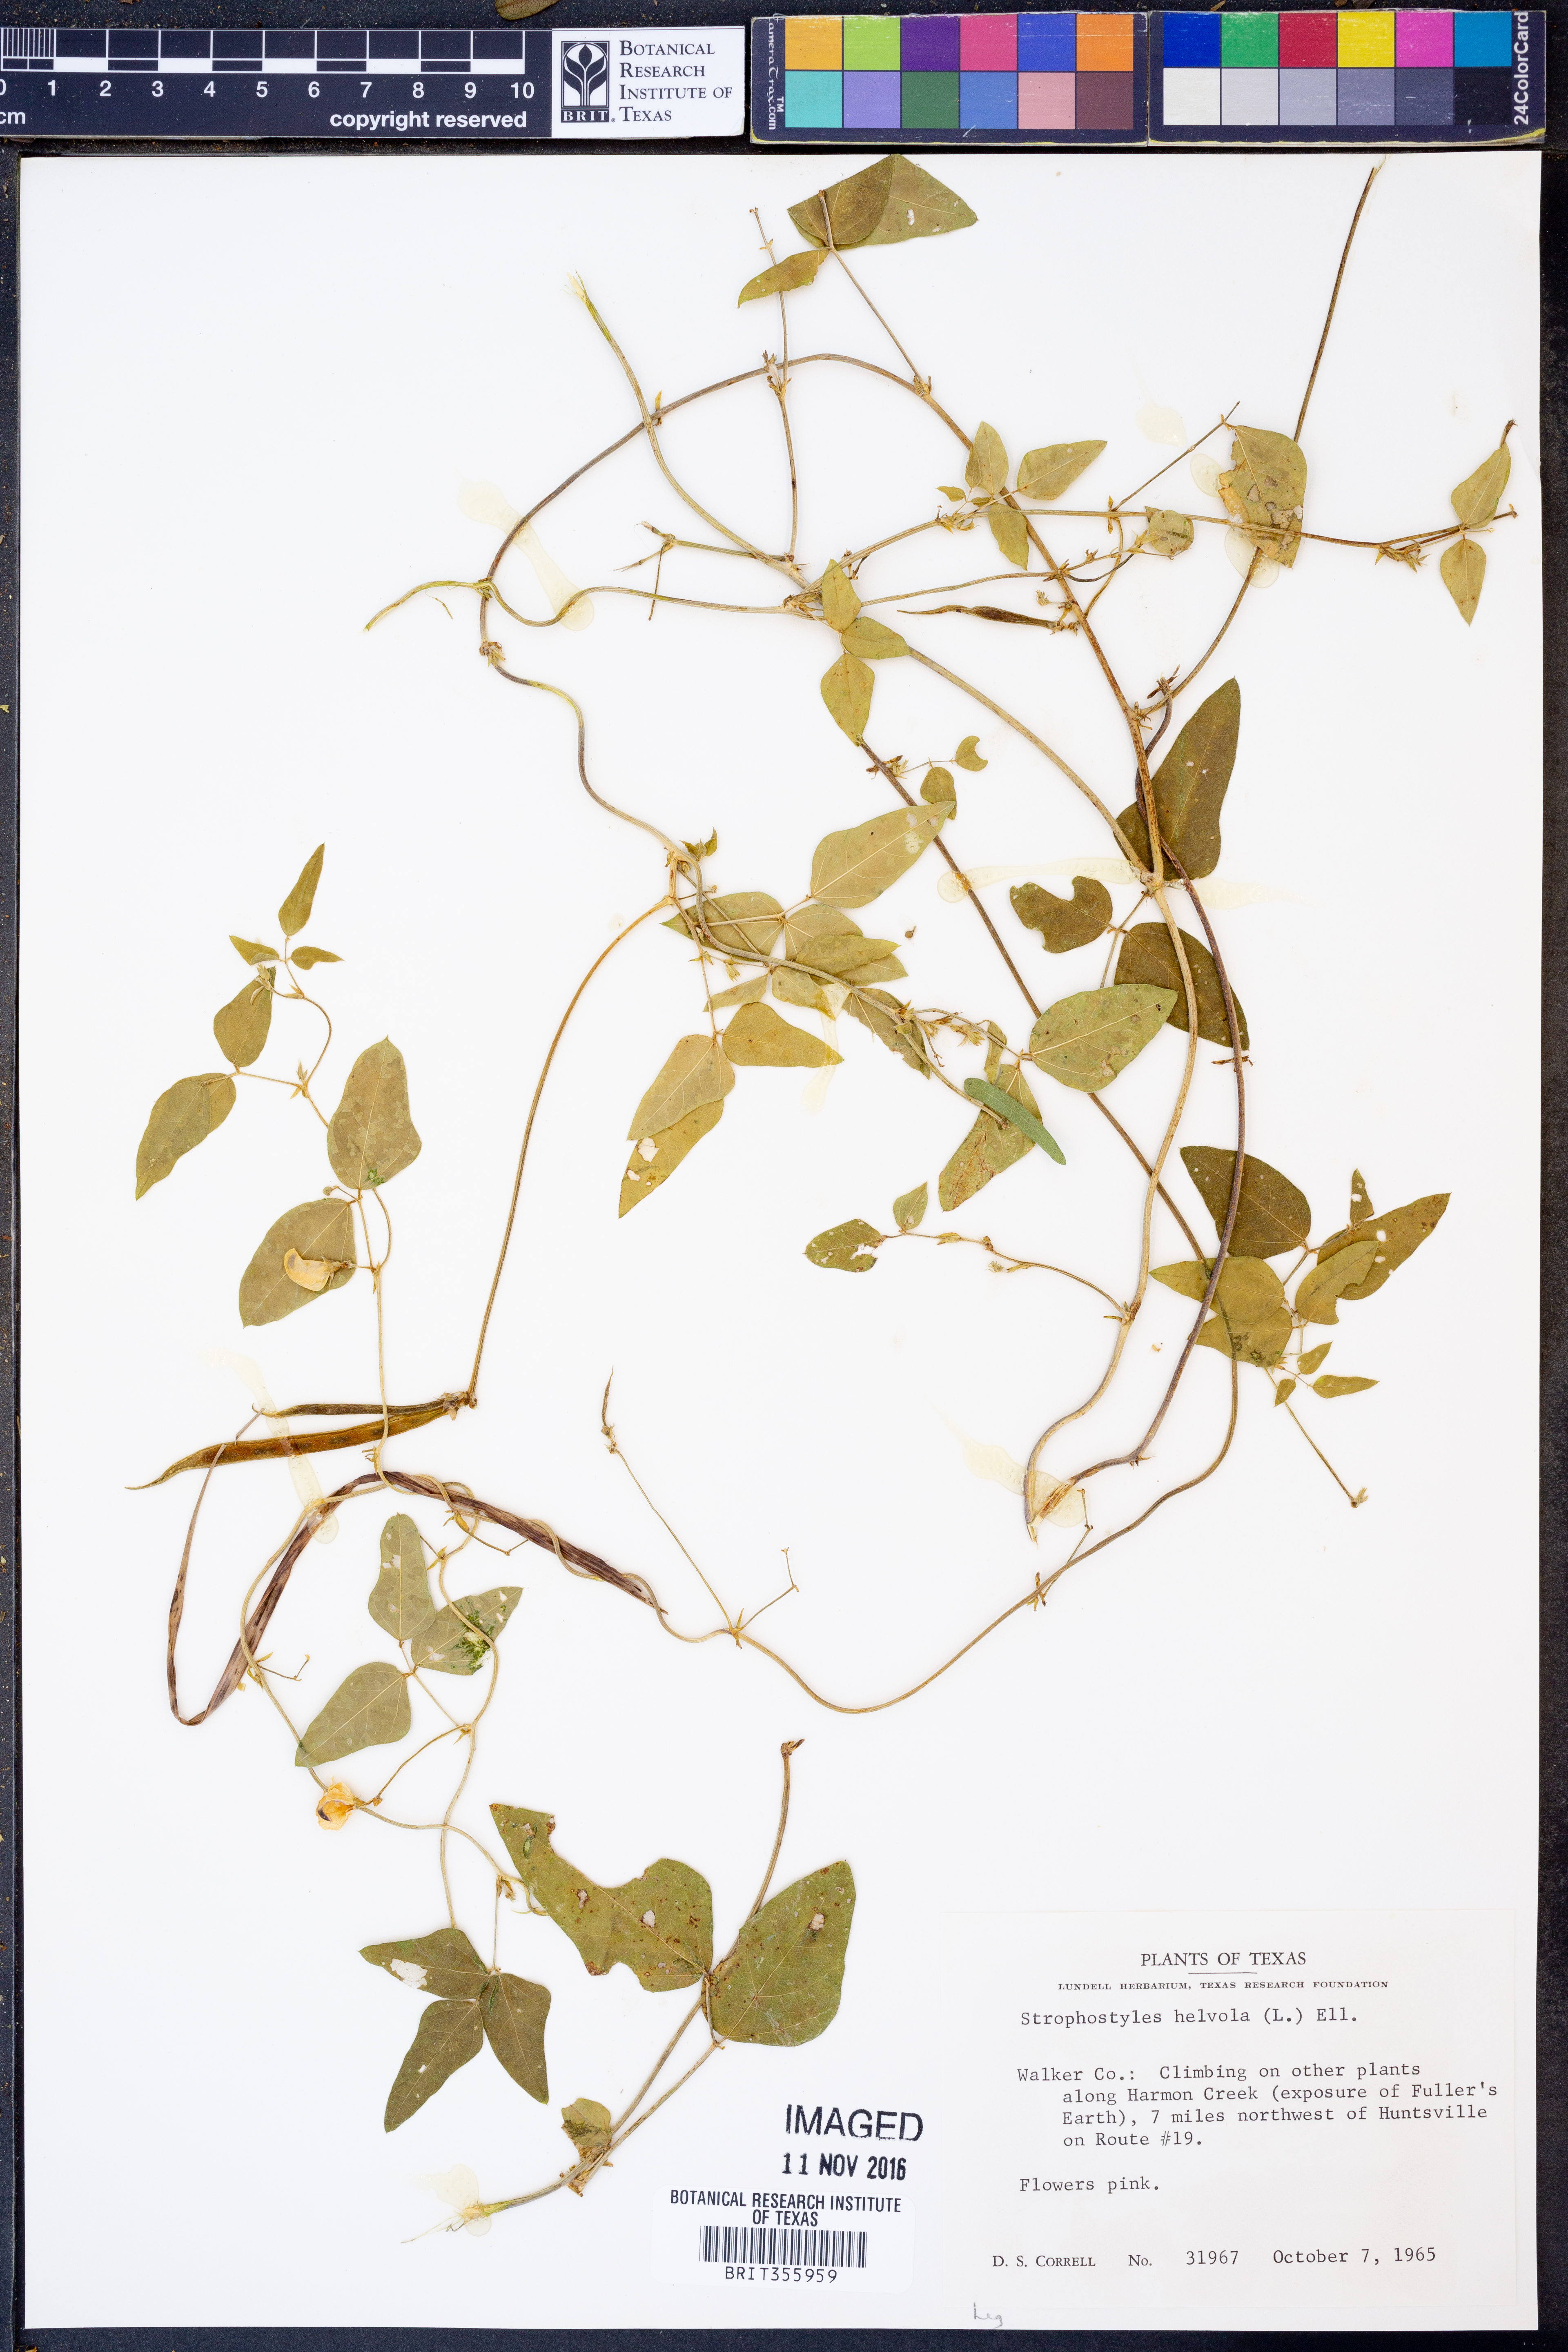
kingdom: Plantae
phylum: Tracheophyta
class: Magnoliopsida
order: Fabales
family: Fabaceae
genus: Strophostyles
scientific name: Strophostyles helvola
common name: Trailing wild bean
